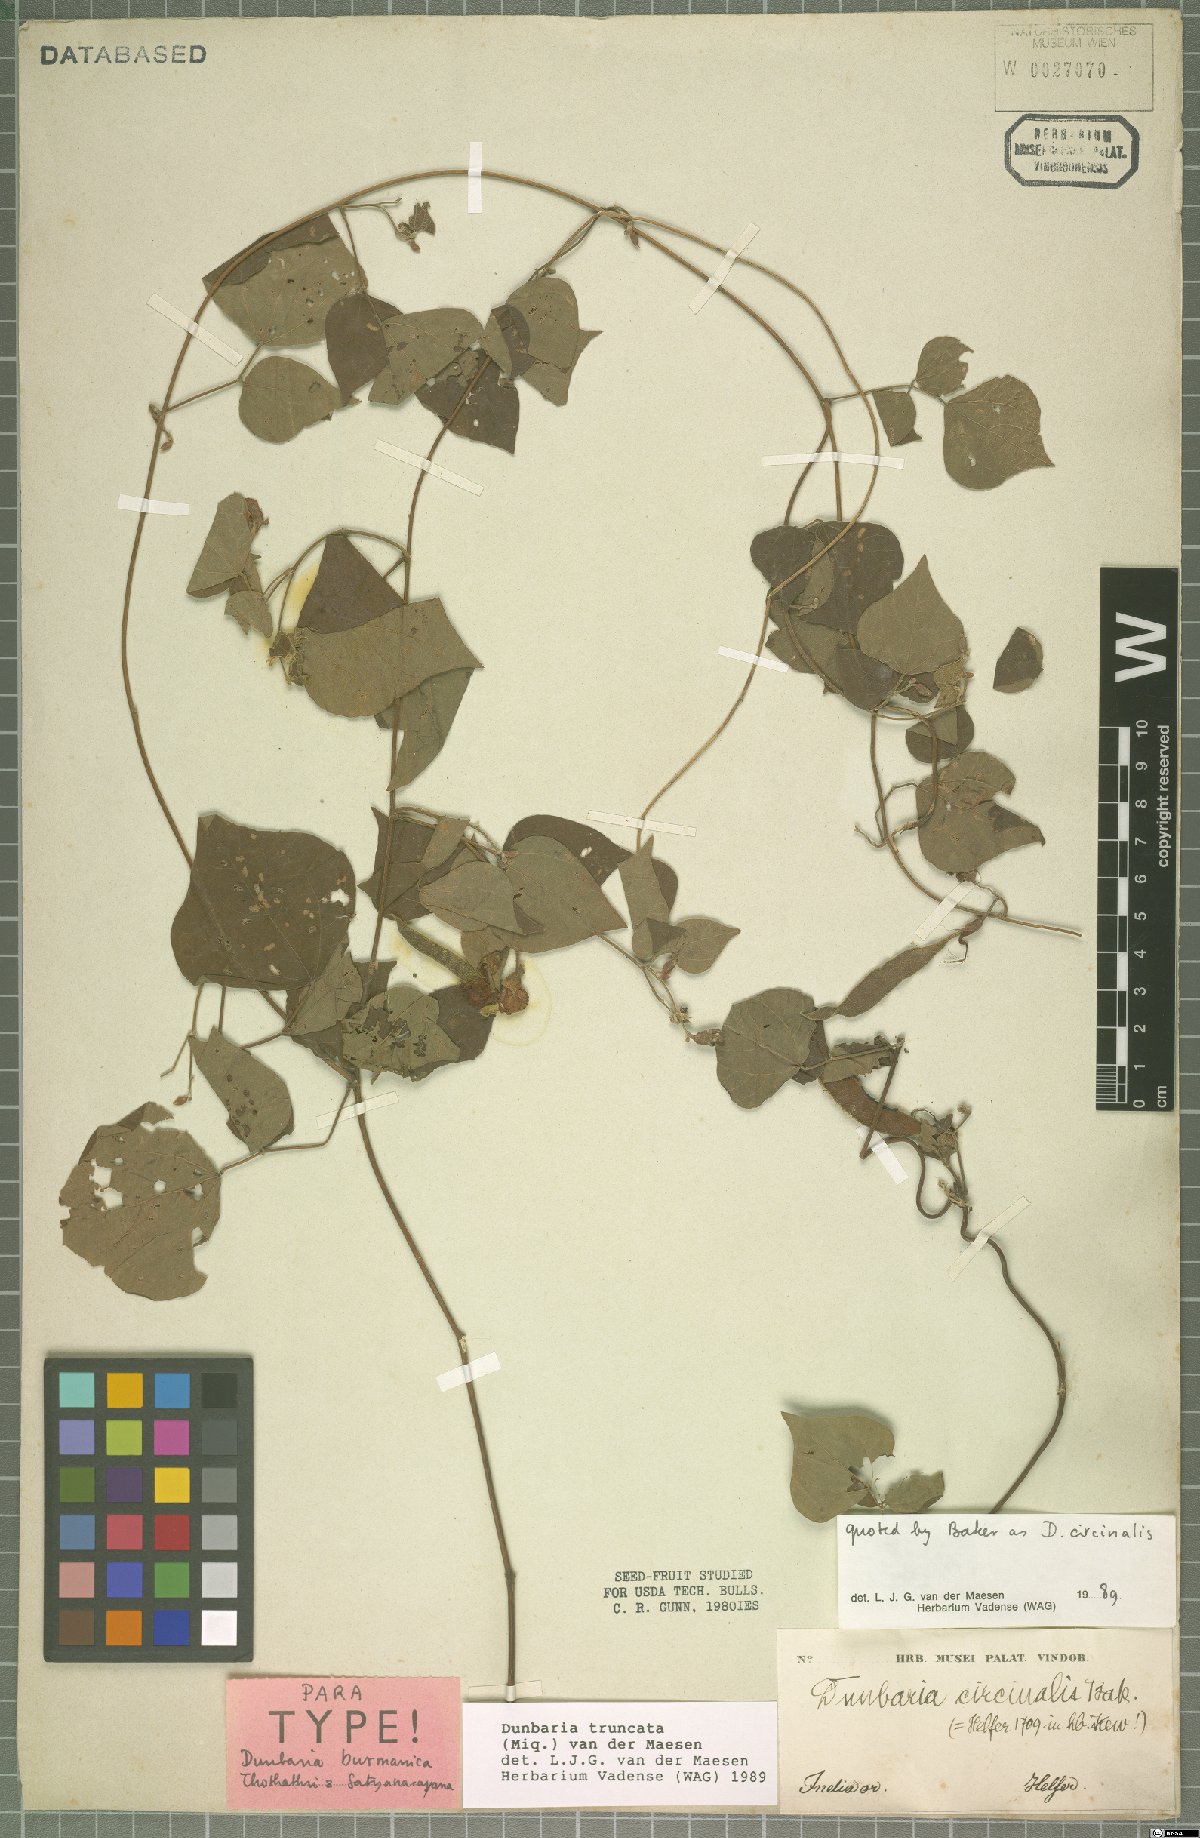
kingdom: Plantae
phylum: Tracheophyta
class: Magnoliopsida
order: Fabales
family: Fabaceae
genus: Dunbaria
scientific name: Dunbaria truncata
